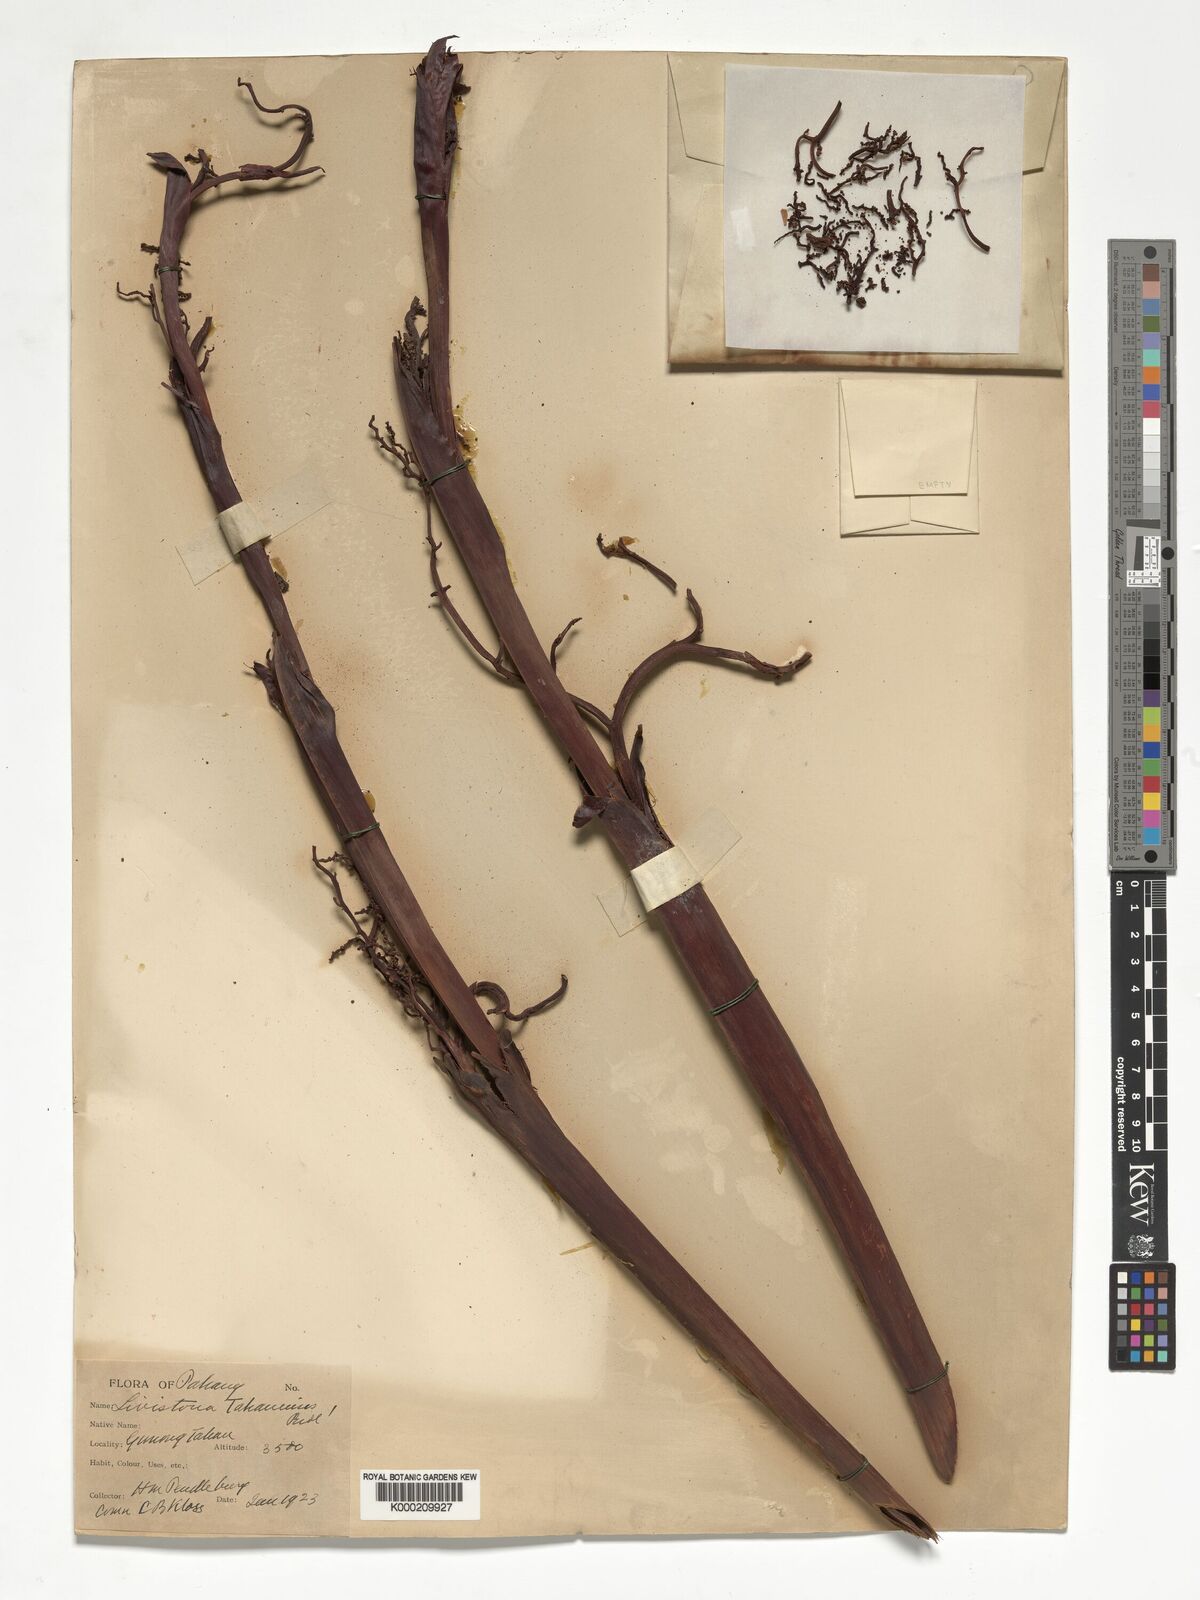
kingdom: Plantae
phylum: Tracheophyta
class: Liliopsida
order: Arecales
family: Arecaceae
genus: Livistona
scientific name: Livistona tahanensis
